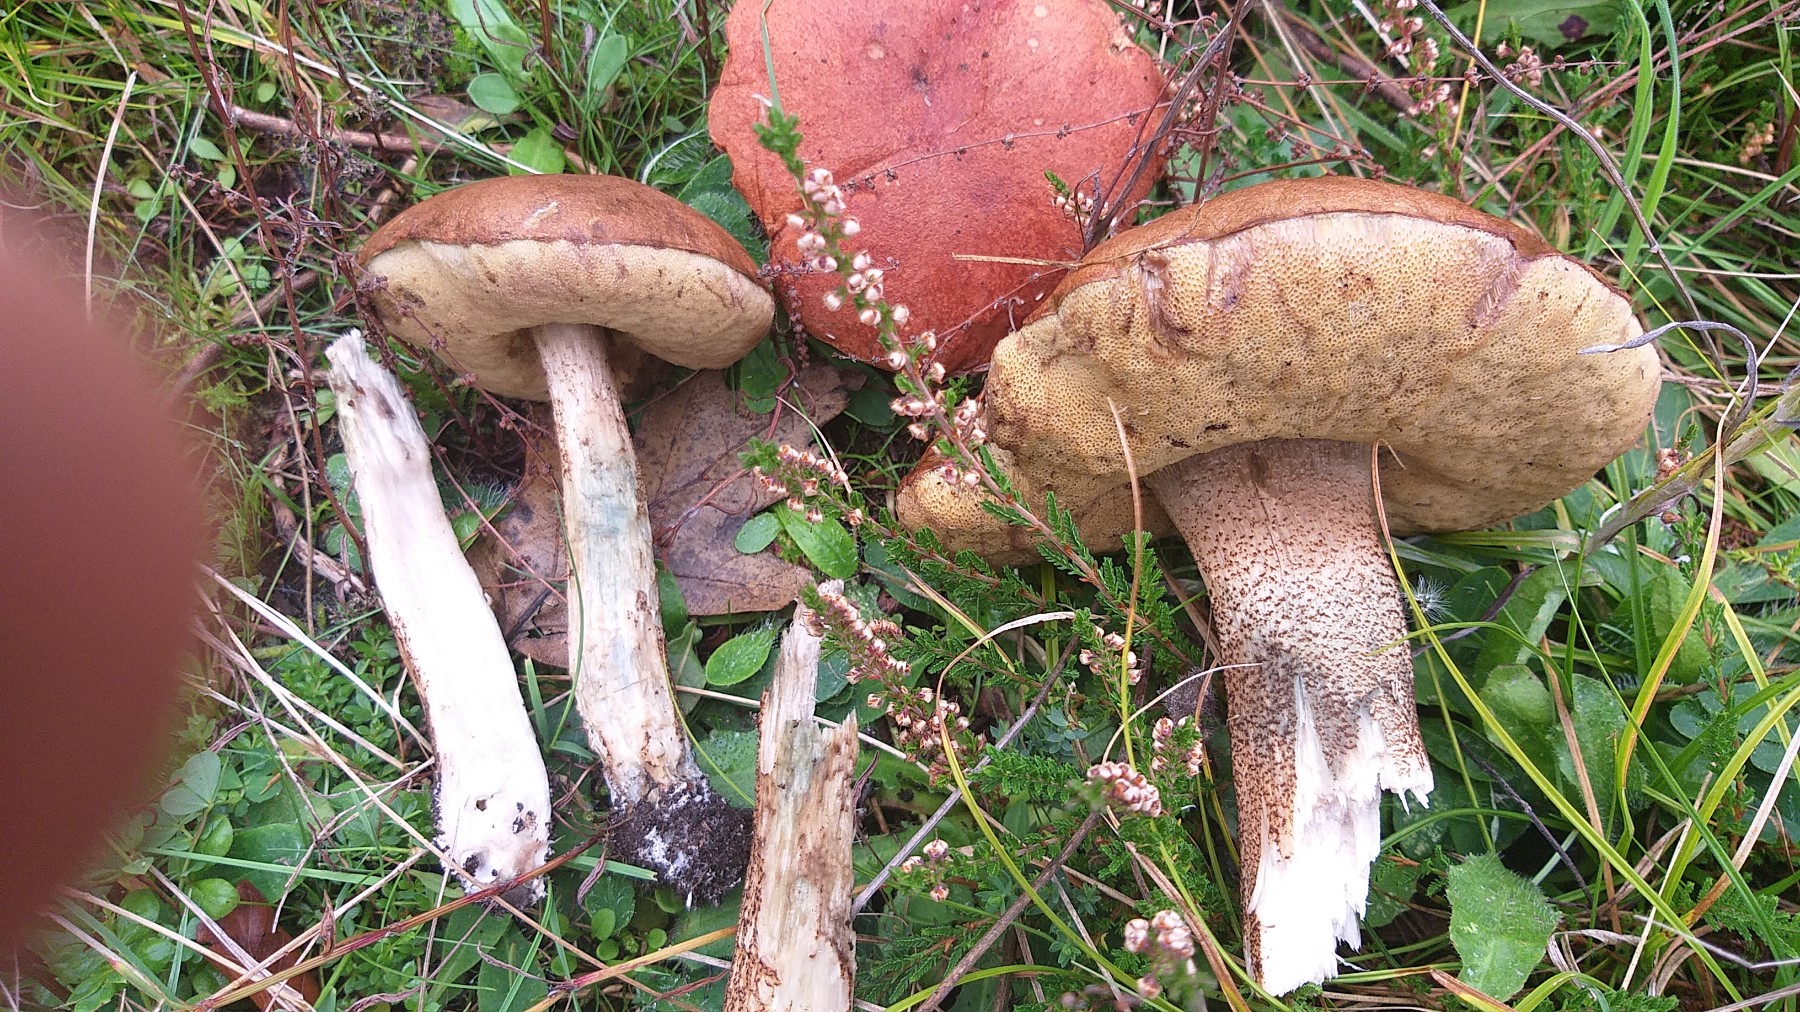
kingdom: Fungi
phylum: Basidiomycota
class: Agaricomycetes
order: Boletales
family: Boletaceae
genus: Leccinum
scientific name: Leccinum aurantiacum
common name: rustrød skælrørhat
